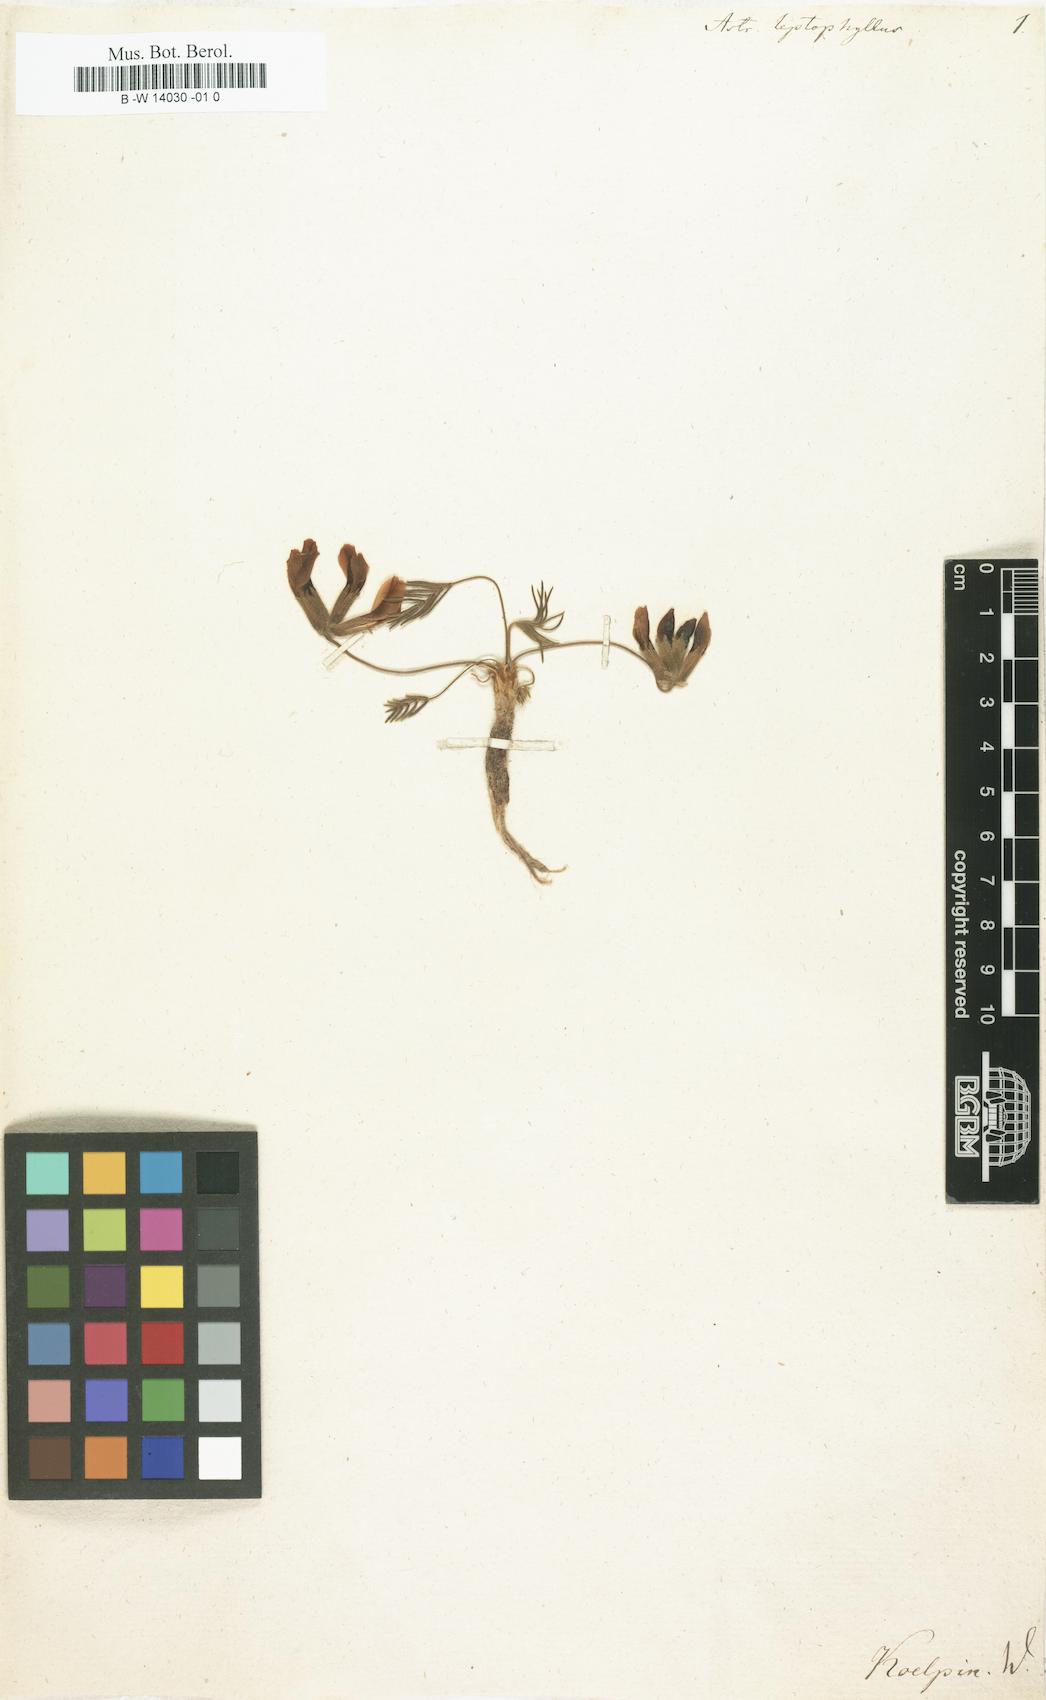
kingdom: Plantae
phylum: Tracheophyta
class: Magnoliopsida
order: Fabales
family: Fabaceae
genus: Oxytropis
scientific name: Oxytropis leptophylla
